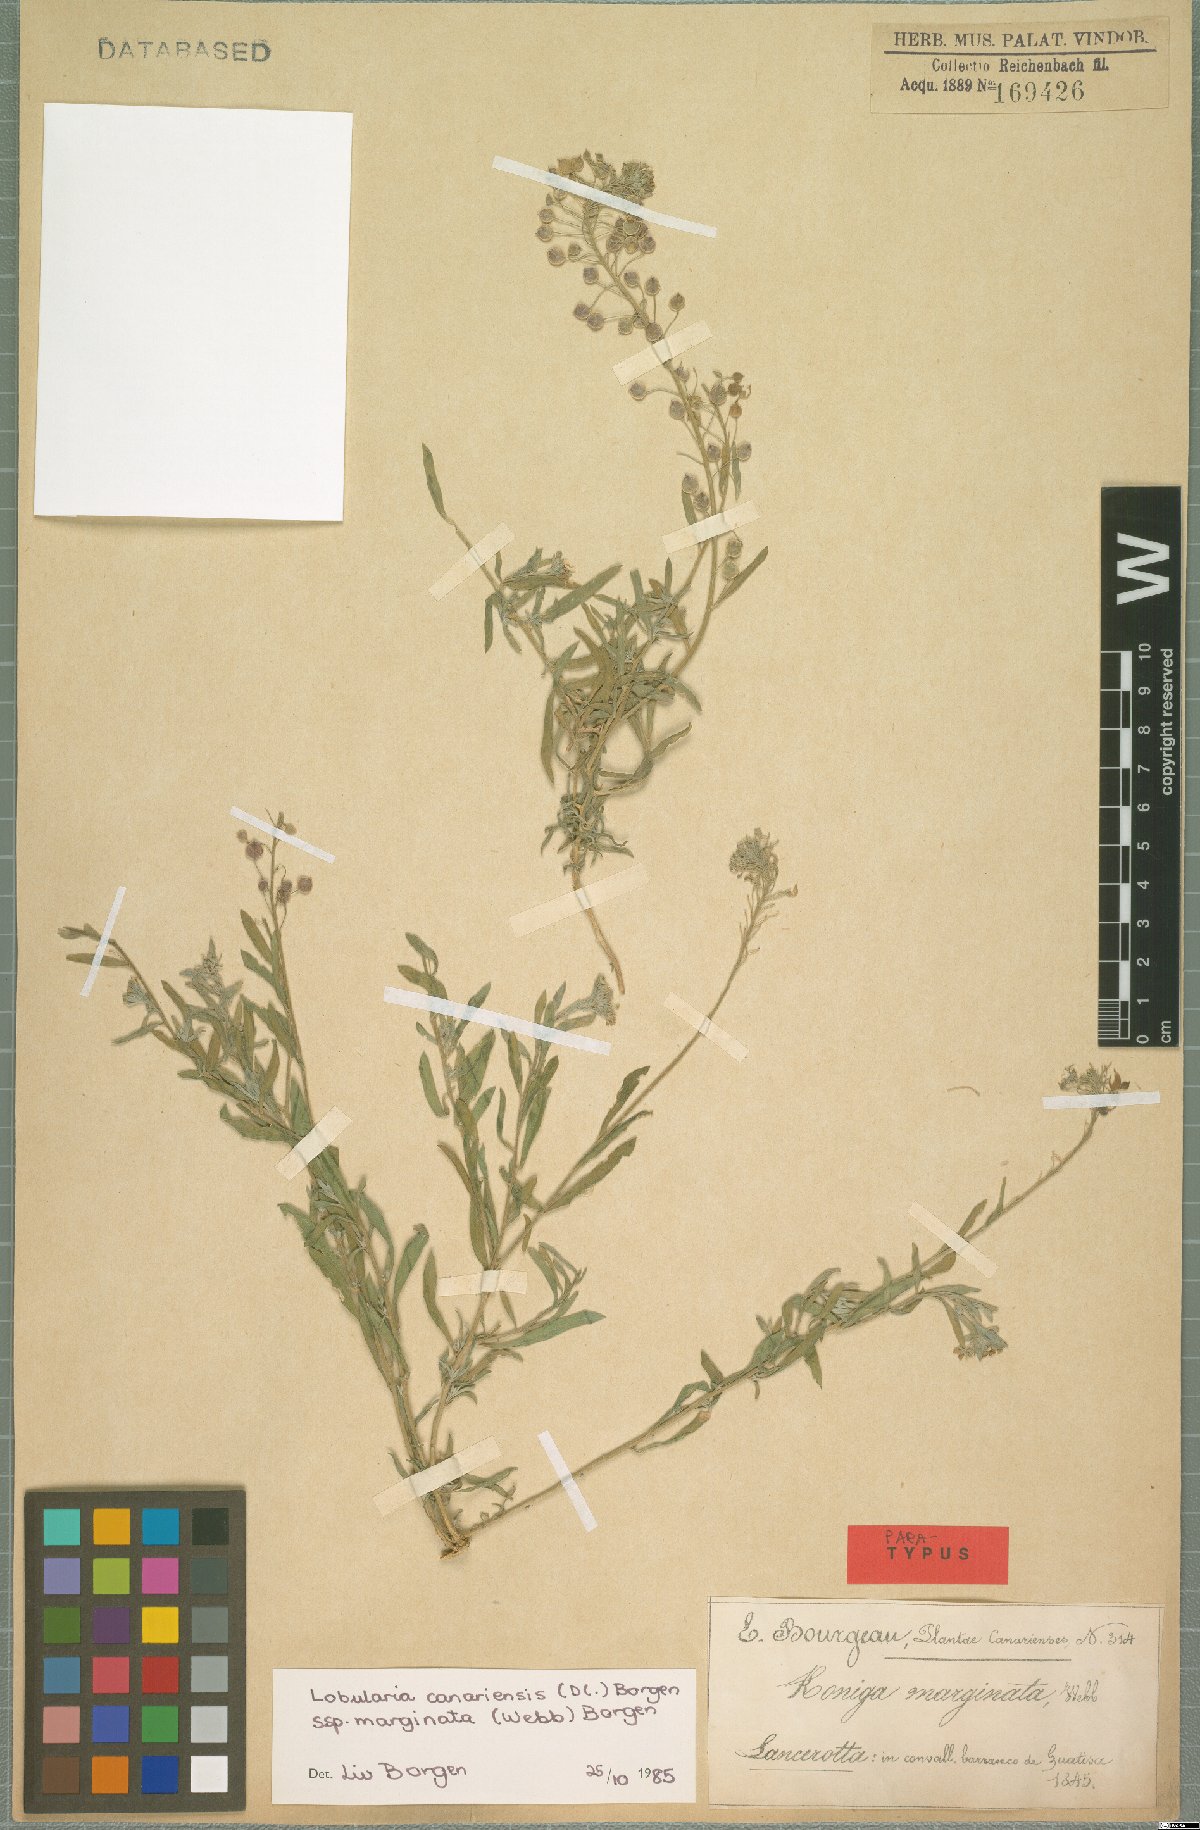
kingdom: Plantae
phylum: Tracheophyta
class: Magnoliopsida
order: Brassicales
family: Brassicaceae
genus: Lobularia
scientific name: Lobularia canariensis
